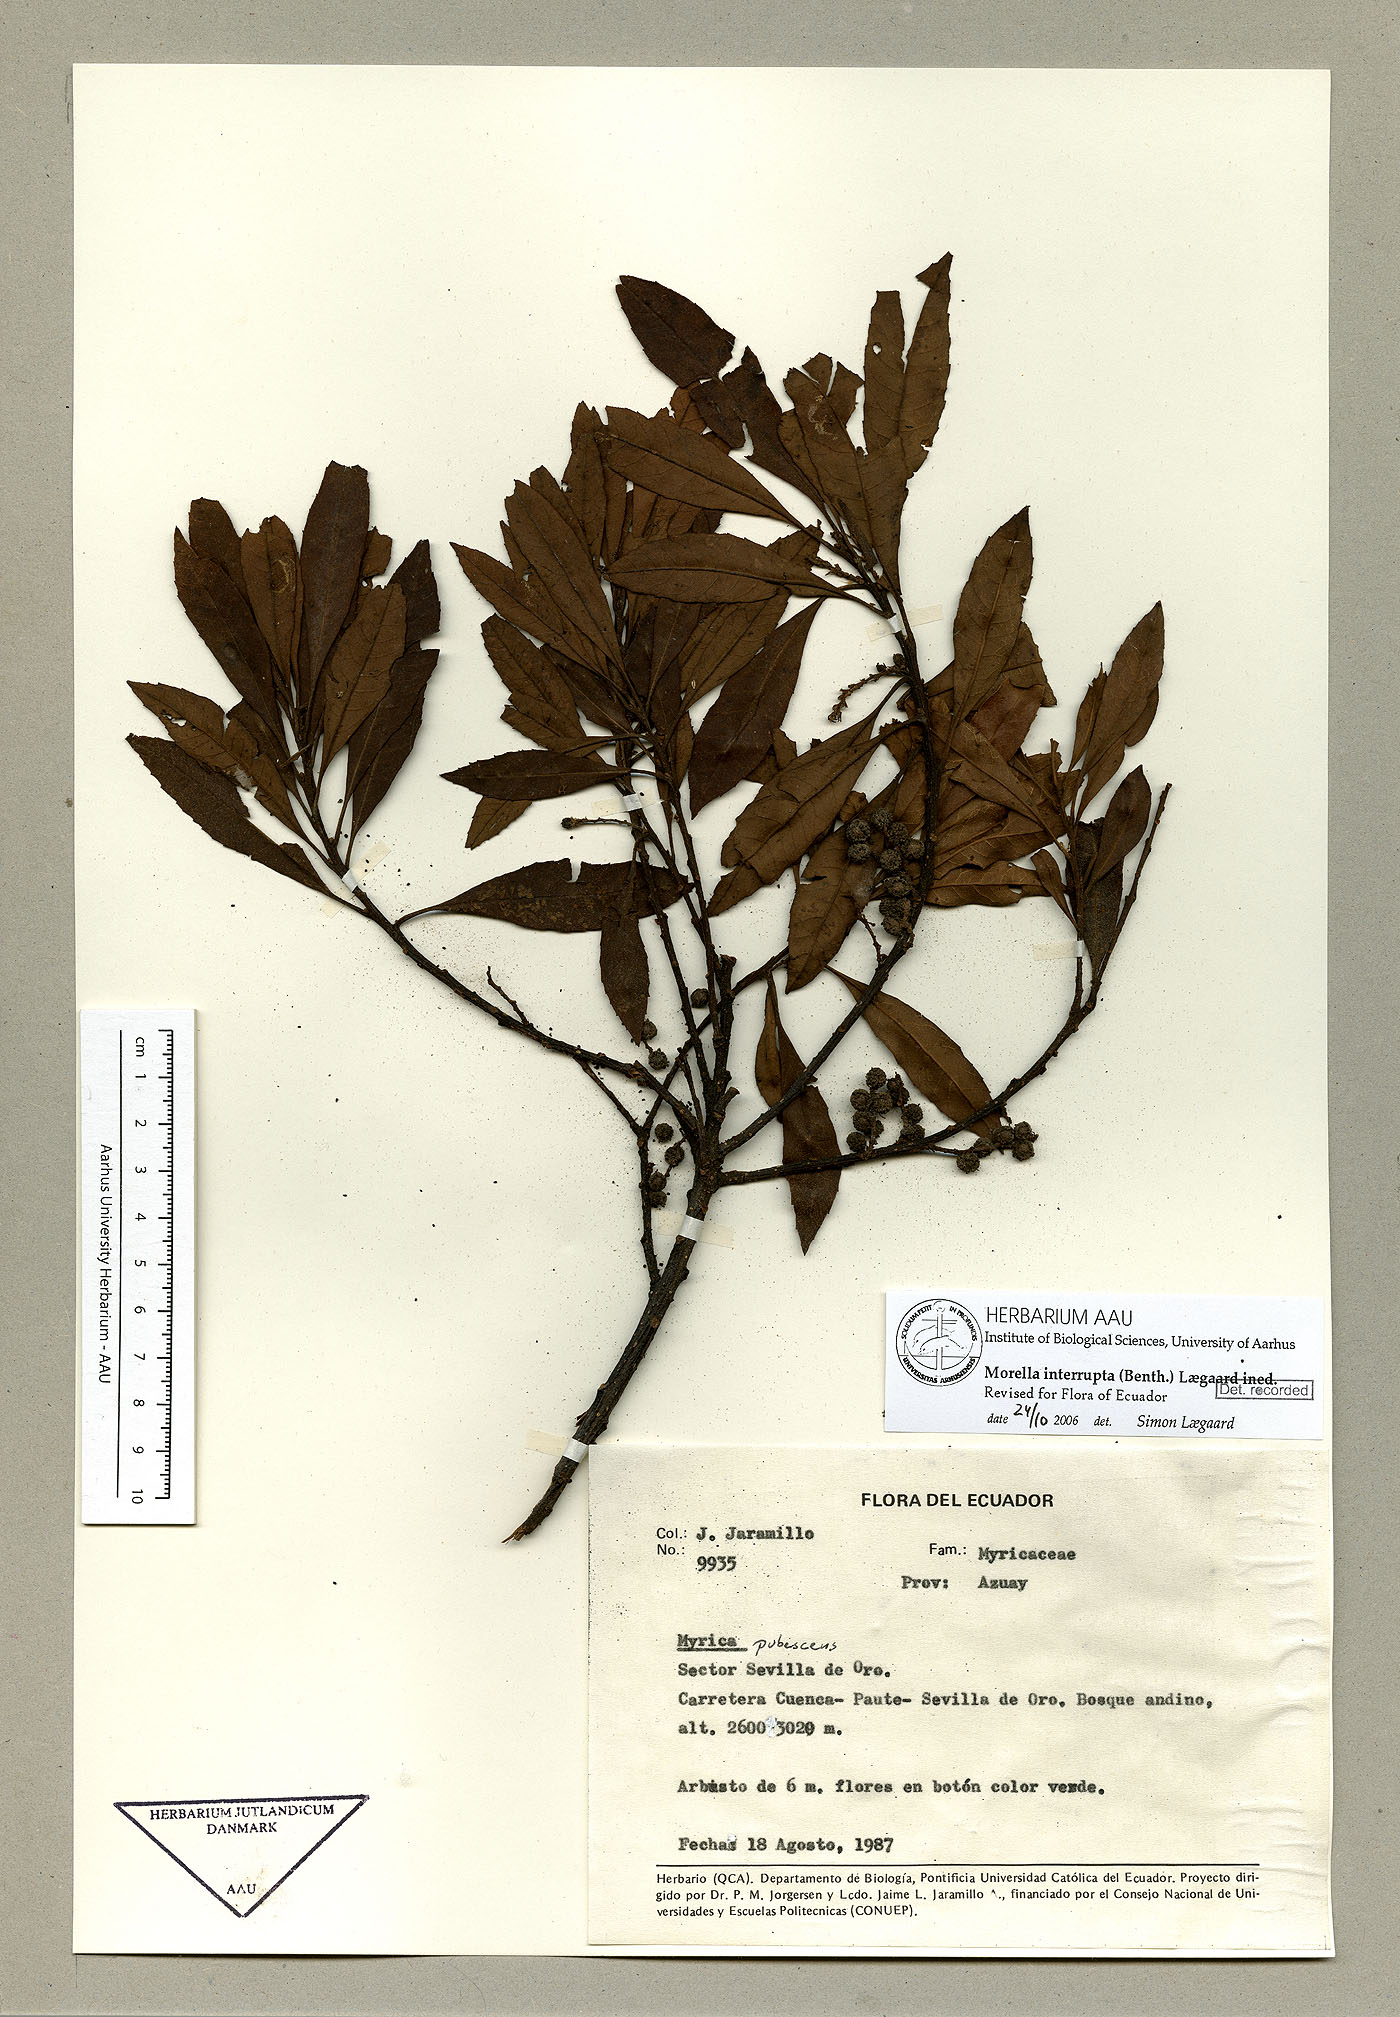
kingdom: Plantae
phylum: Tracheophyta
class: Magnoliopsida
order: Fagales
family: Myricaceae
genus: Morella
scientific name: Morella interrupta
